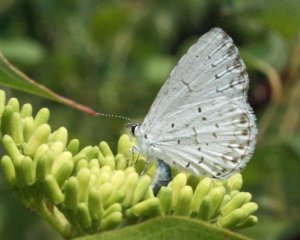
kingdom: Animalia
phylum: Arthropoda
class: Insecta
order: Lepidoptera
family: Lycaenidae
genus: Cyaniris
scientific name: Cyaniris neglecta
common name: Summer Azure
